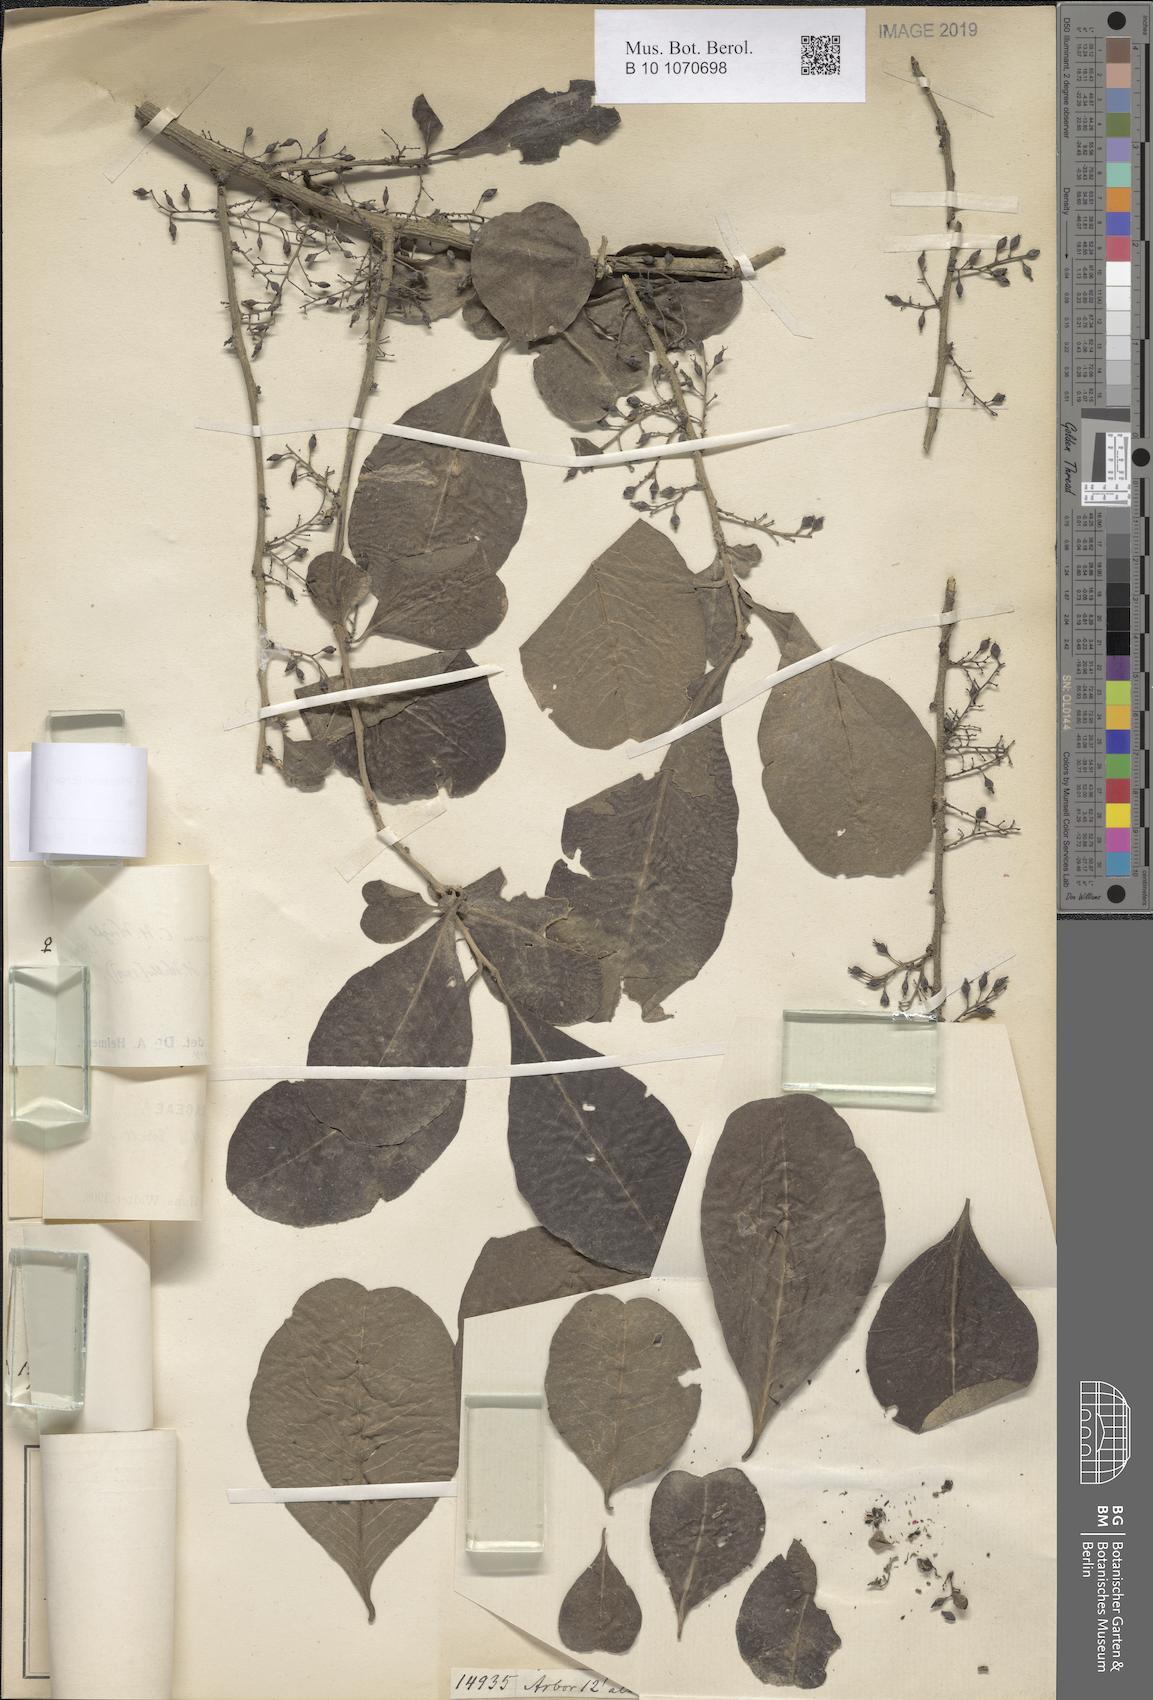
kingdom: Plantae
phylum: Tracheophyta
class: Magnoliopsida
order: Caryophyllales
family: Achatocarpaceae
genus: Achatocarpus
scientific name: Achatocarpus pubescens
